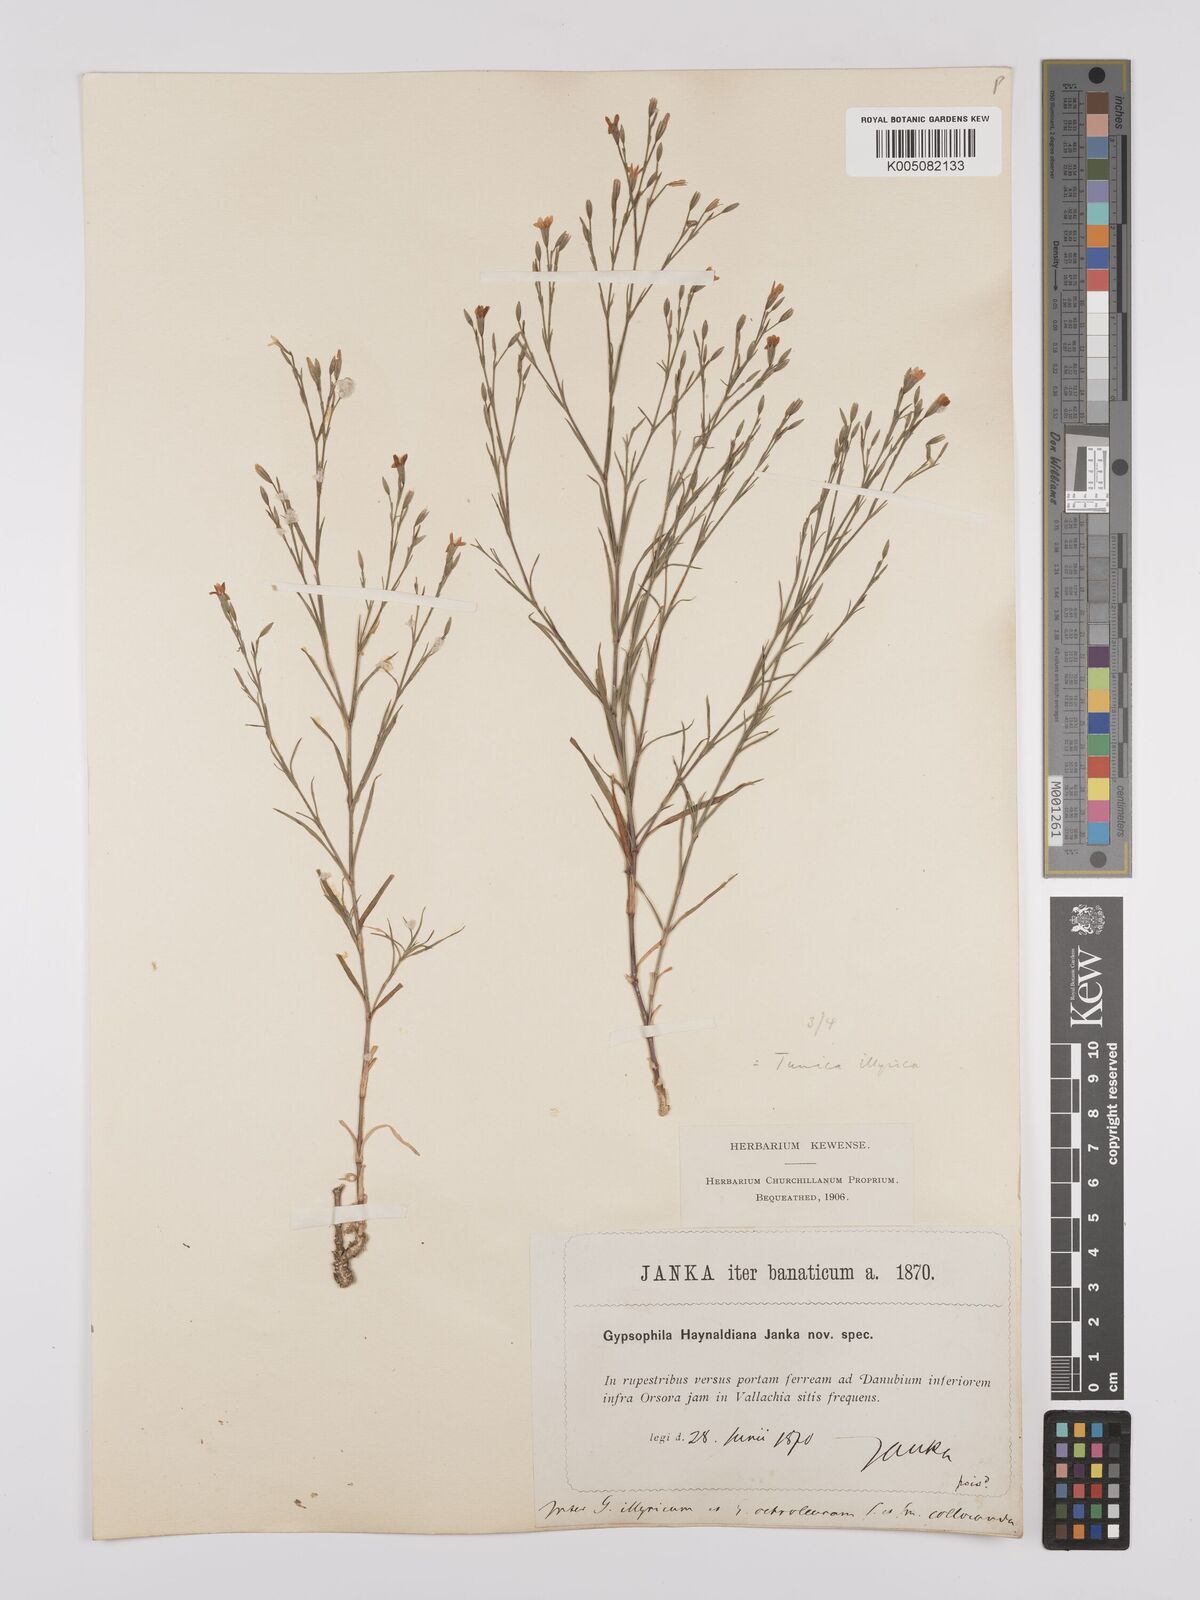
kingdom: Plantae
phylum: Tracheophyta
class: Magnoliopsida
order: Caryophyllales
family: Caryophyllaceae
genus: Dianthus
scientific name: Dianthus illyricus
